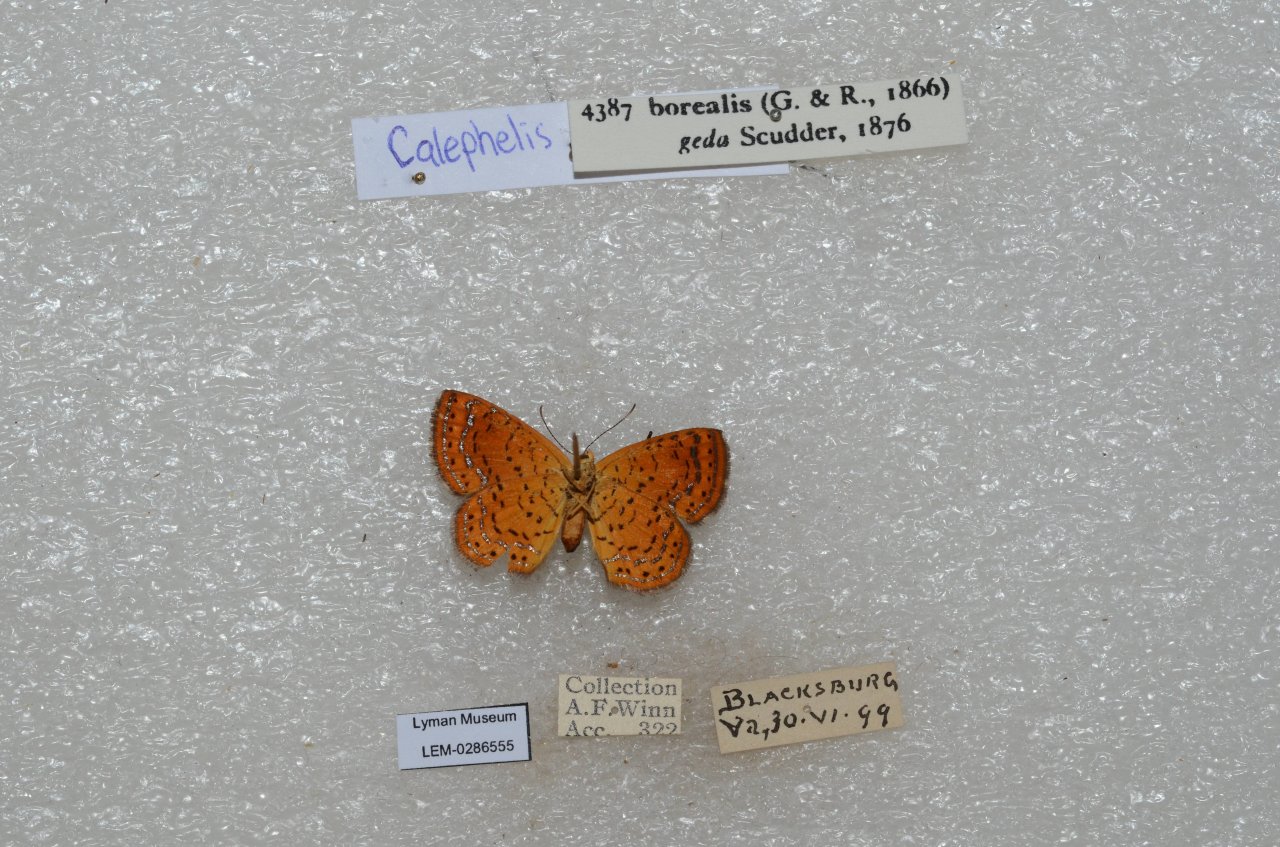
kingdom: Animalia
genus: Calephelis
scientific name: Calephelis borealis
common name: Northern Metalmark
